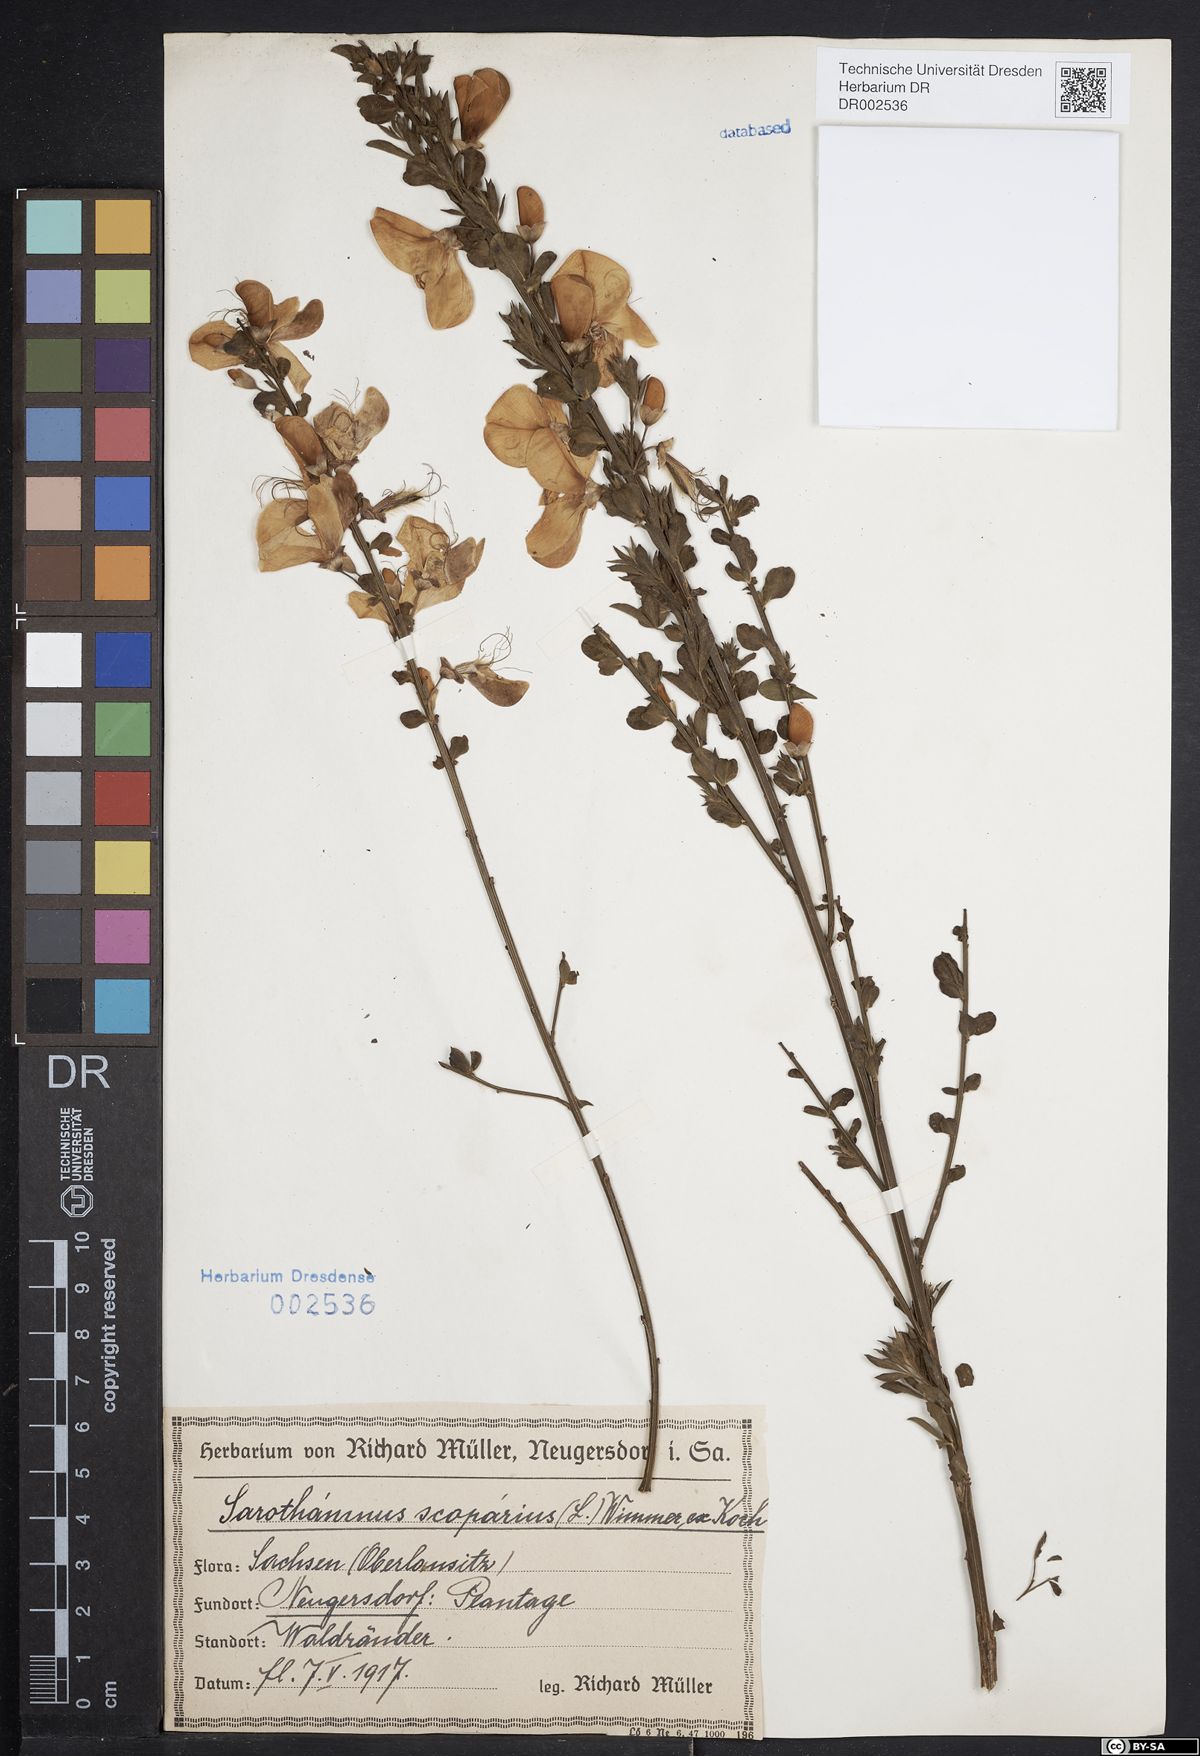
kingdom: Plantae
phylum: Tracheophyta
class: Magnoliopsida
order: Fabales
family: Fabaceae
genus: Cytisus
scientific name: Cytisus scoparius
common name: Scotch broom
